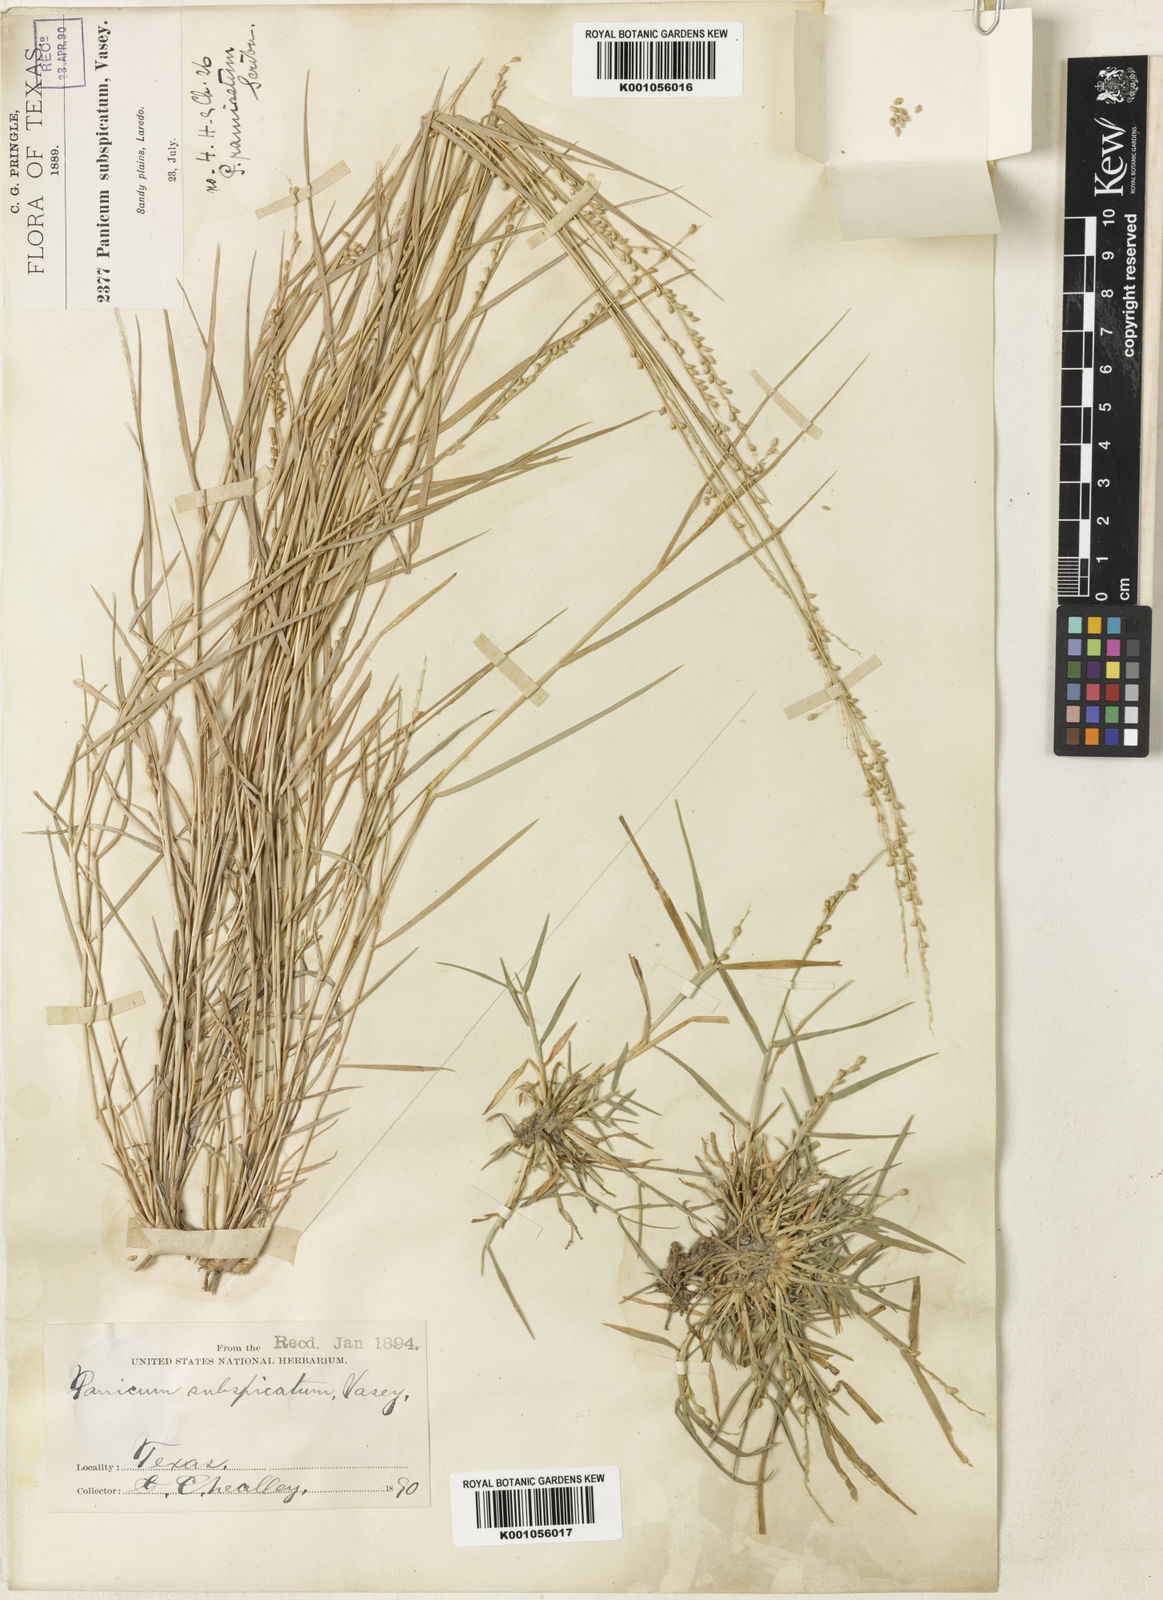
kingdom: Plantae
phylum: Tracheophyta
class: Liliopsida
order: Poales
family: Poaceae
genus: Setaria
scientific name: Setaria
